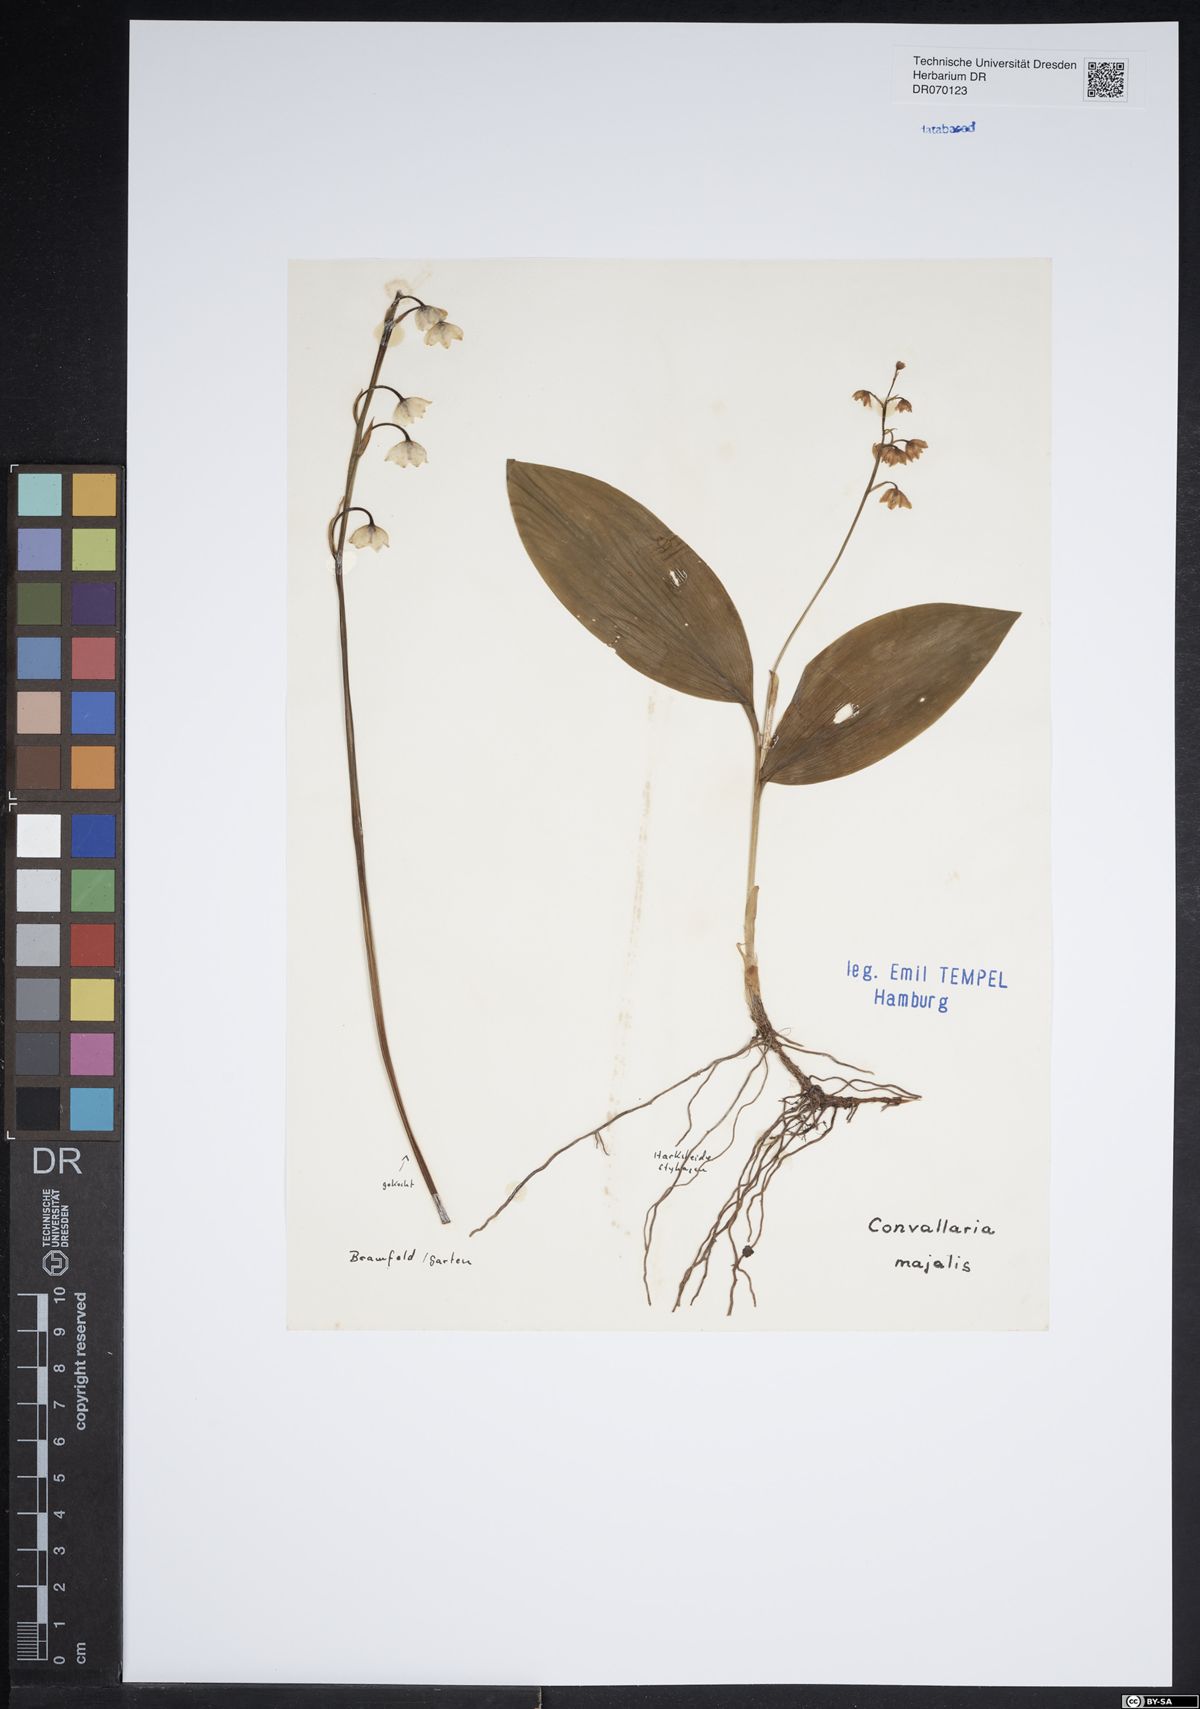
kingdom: Plantae
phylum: Tracheophyta
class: Liliopsida
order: Asparagales
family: Asparagaceae
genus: Convallaria
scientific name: Convallaria majalis
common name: Lily-of-the-valley
